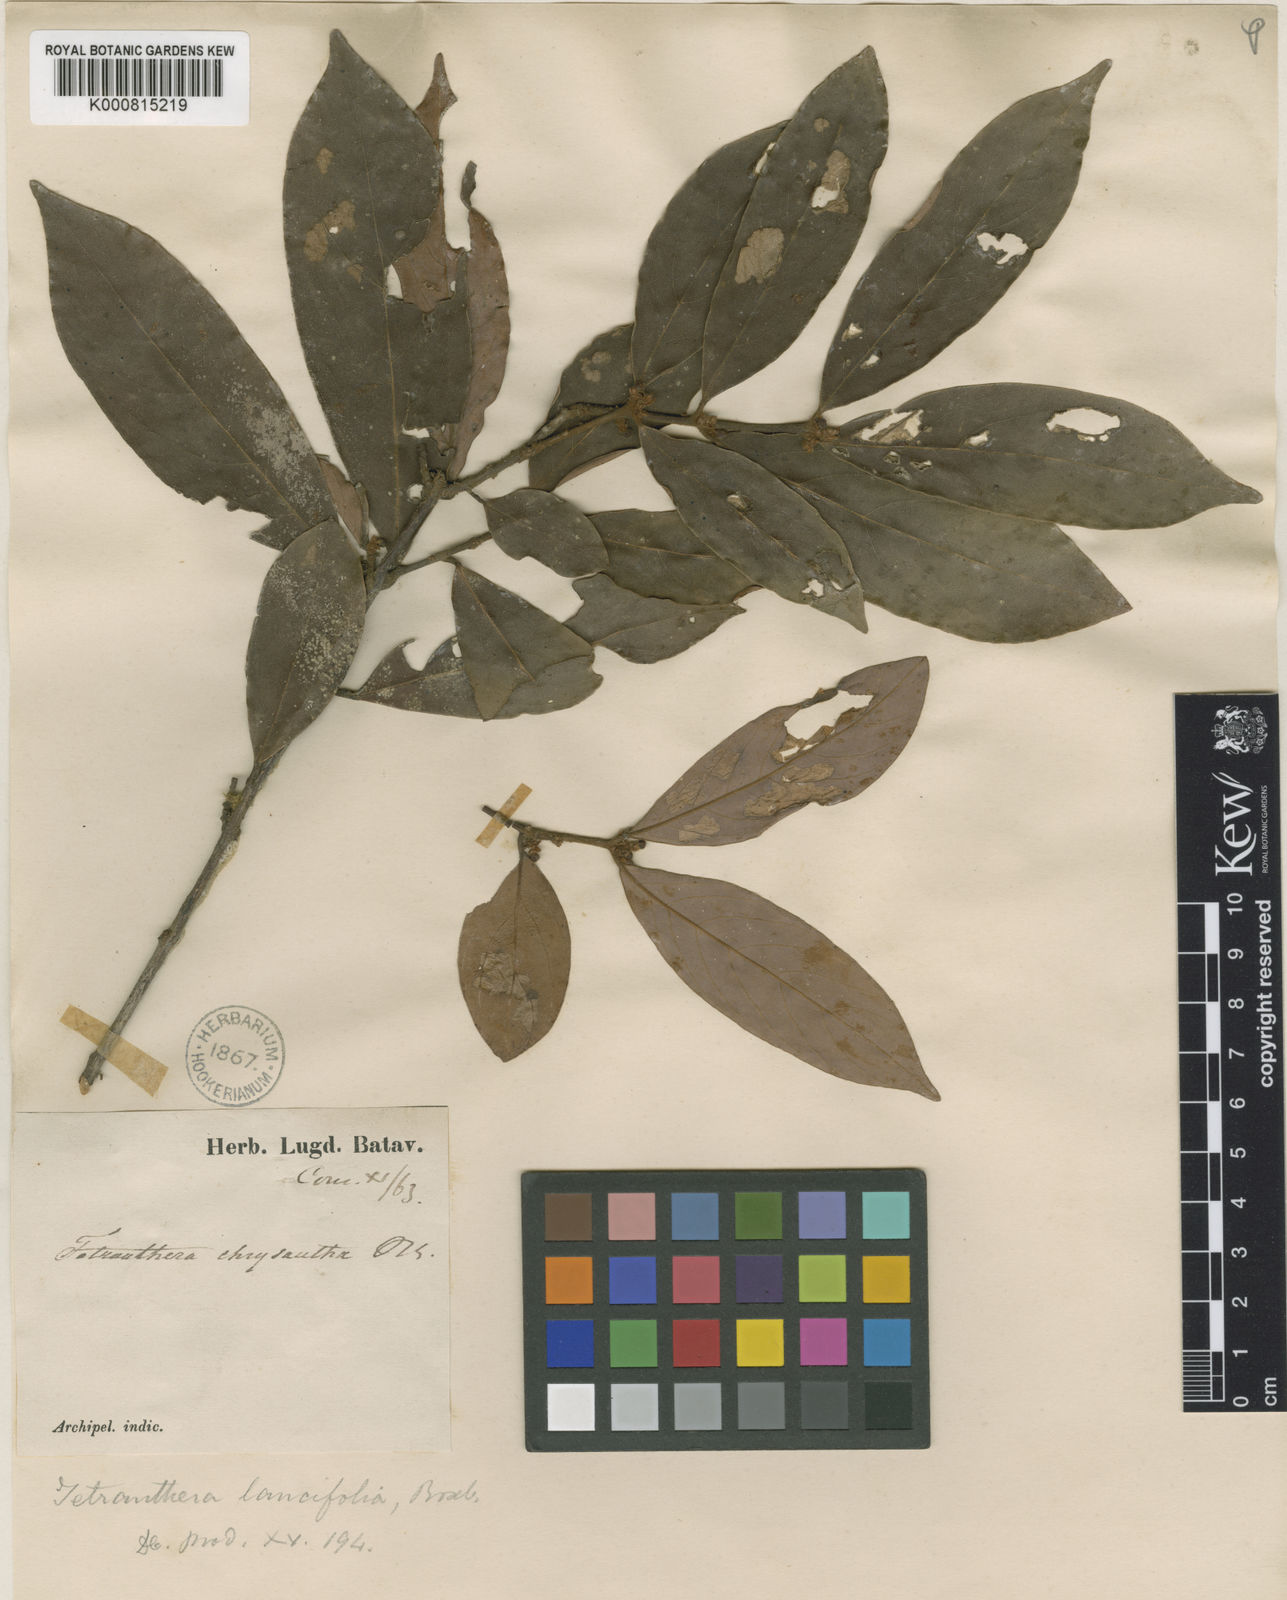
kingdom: Plantae
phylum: Tracheophyta
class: Magnoliopsida
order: Laurales
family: Lauraceae
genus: Litsea
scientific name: Litsea fulva
